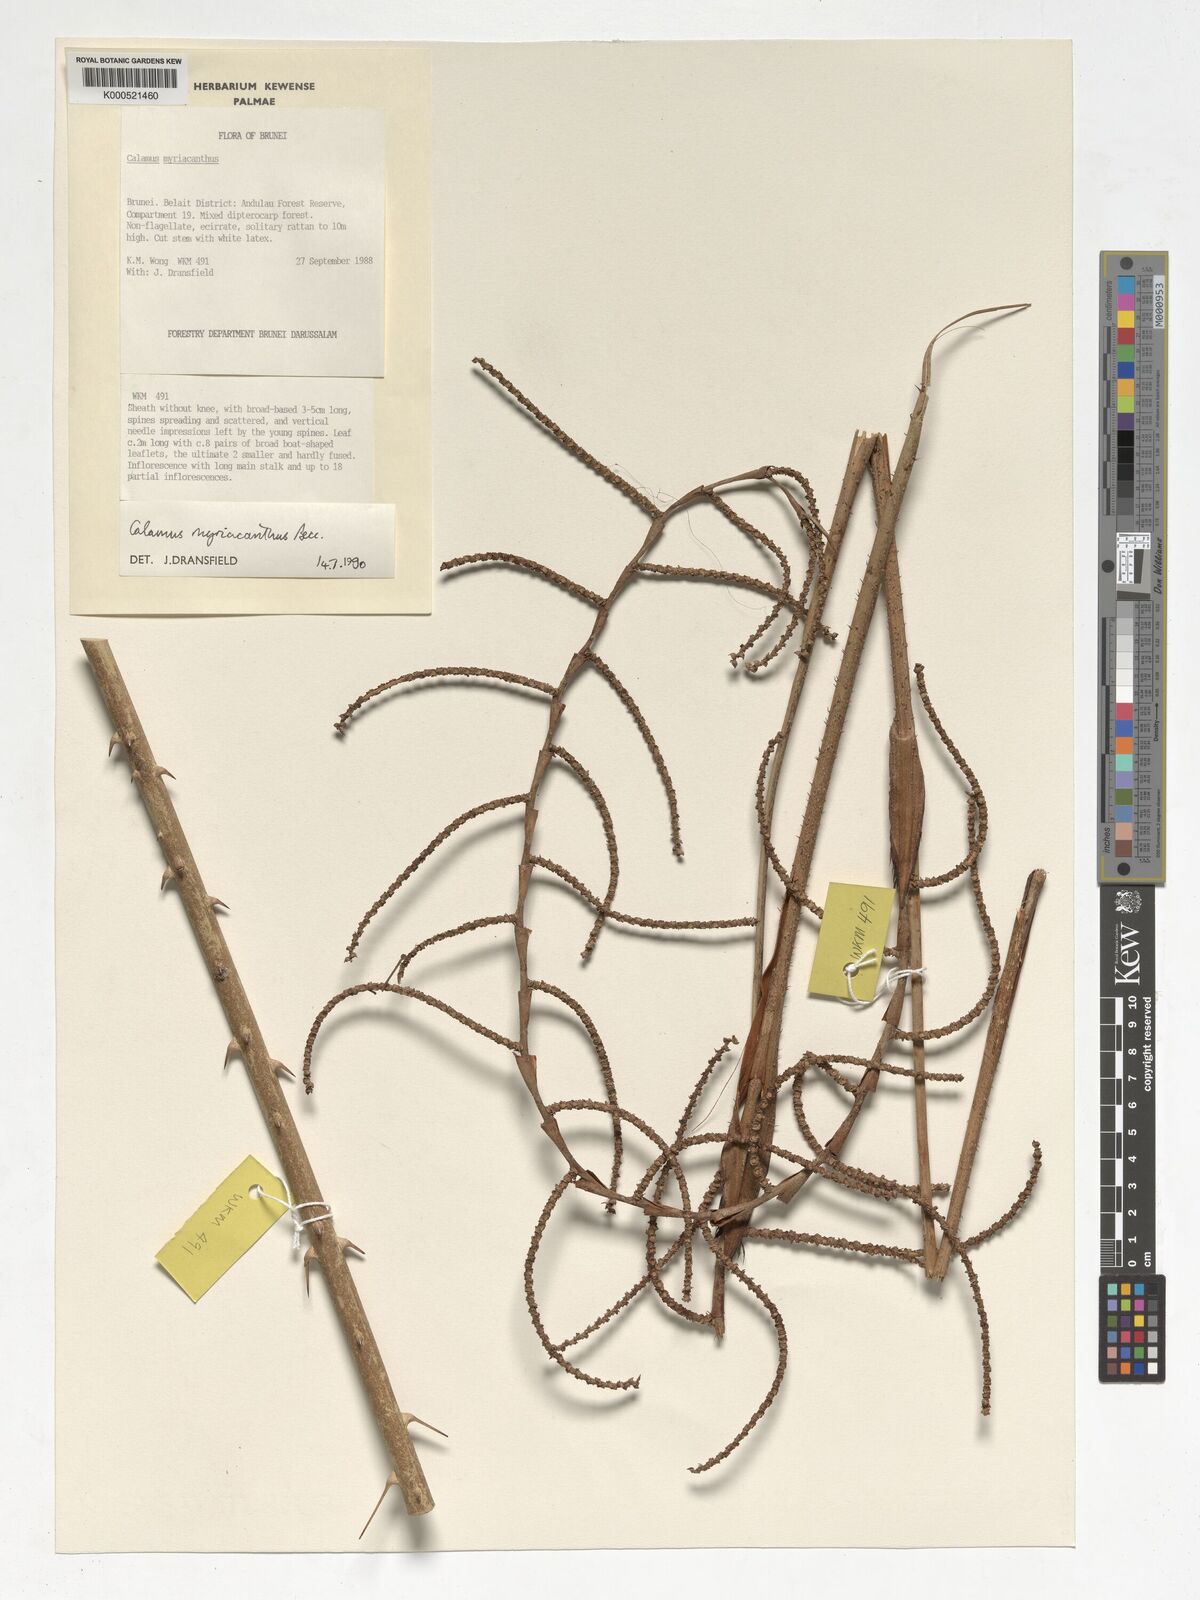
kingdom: Plantae
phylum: Tracheophyta
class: Liliopsida
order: Arecales
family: Arecaceae
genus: Calamus
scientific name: Calamus myriacanthus
